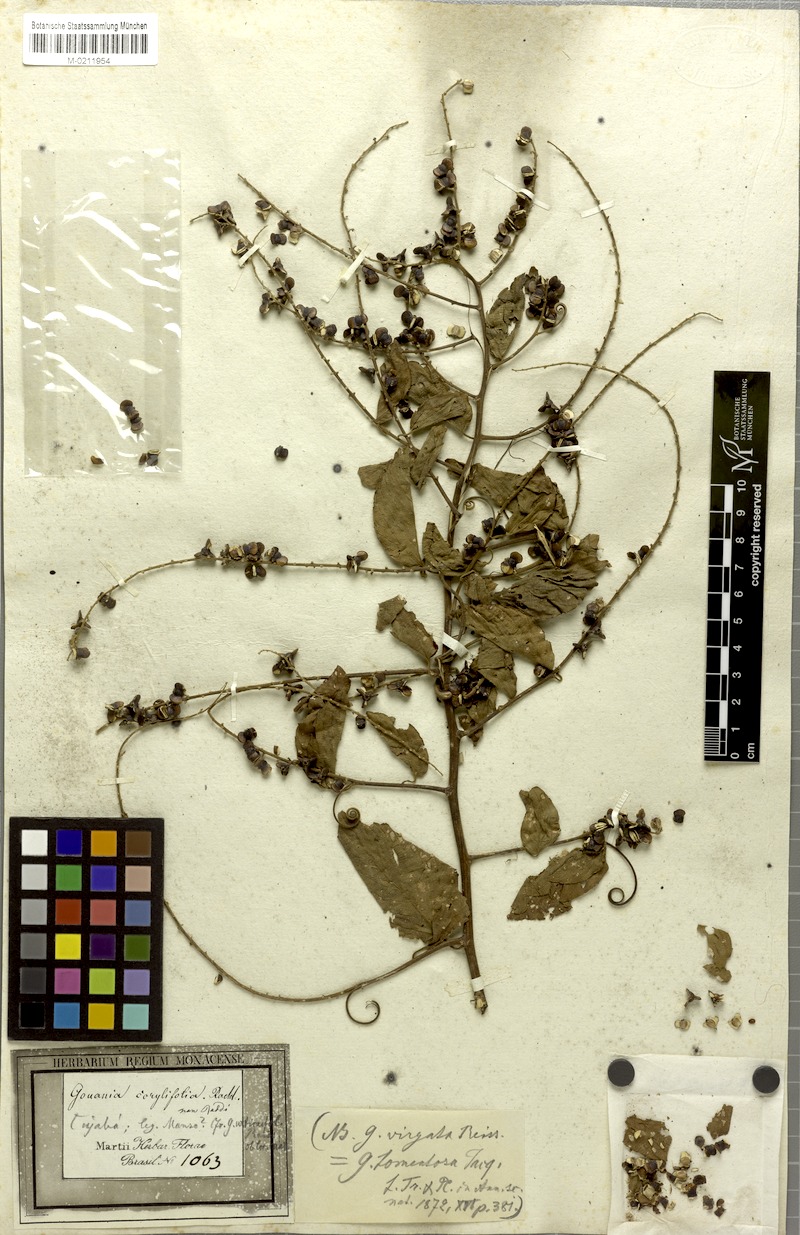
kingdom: Plantae
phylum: Tracheophyta
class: Magnoliopsida
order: Rosales
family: Rhamnaceae
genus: Gouania
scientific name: Gouania corylifolia
